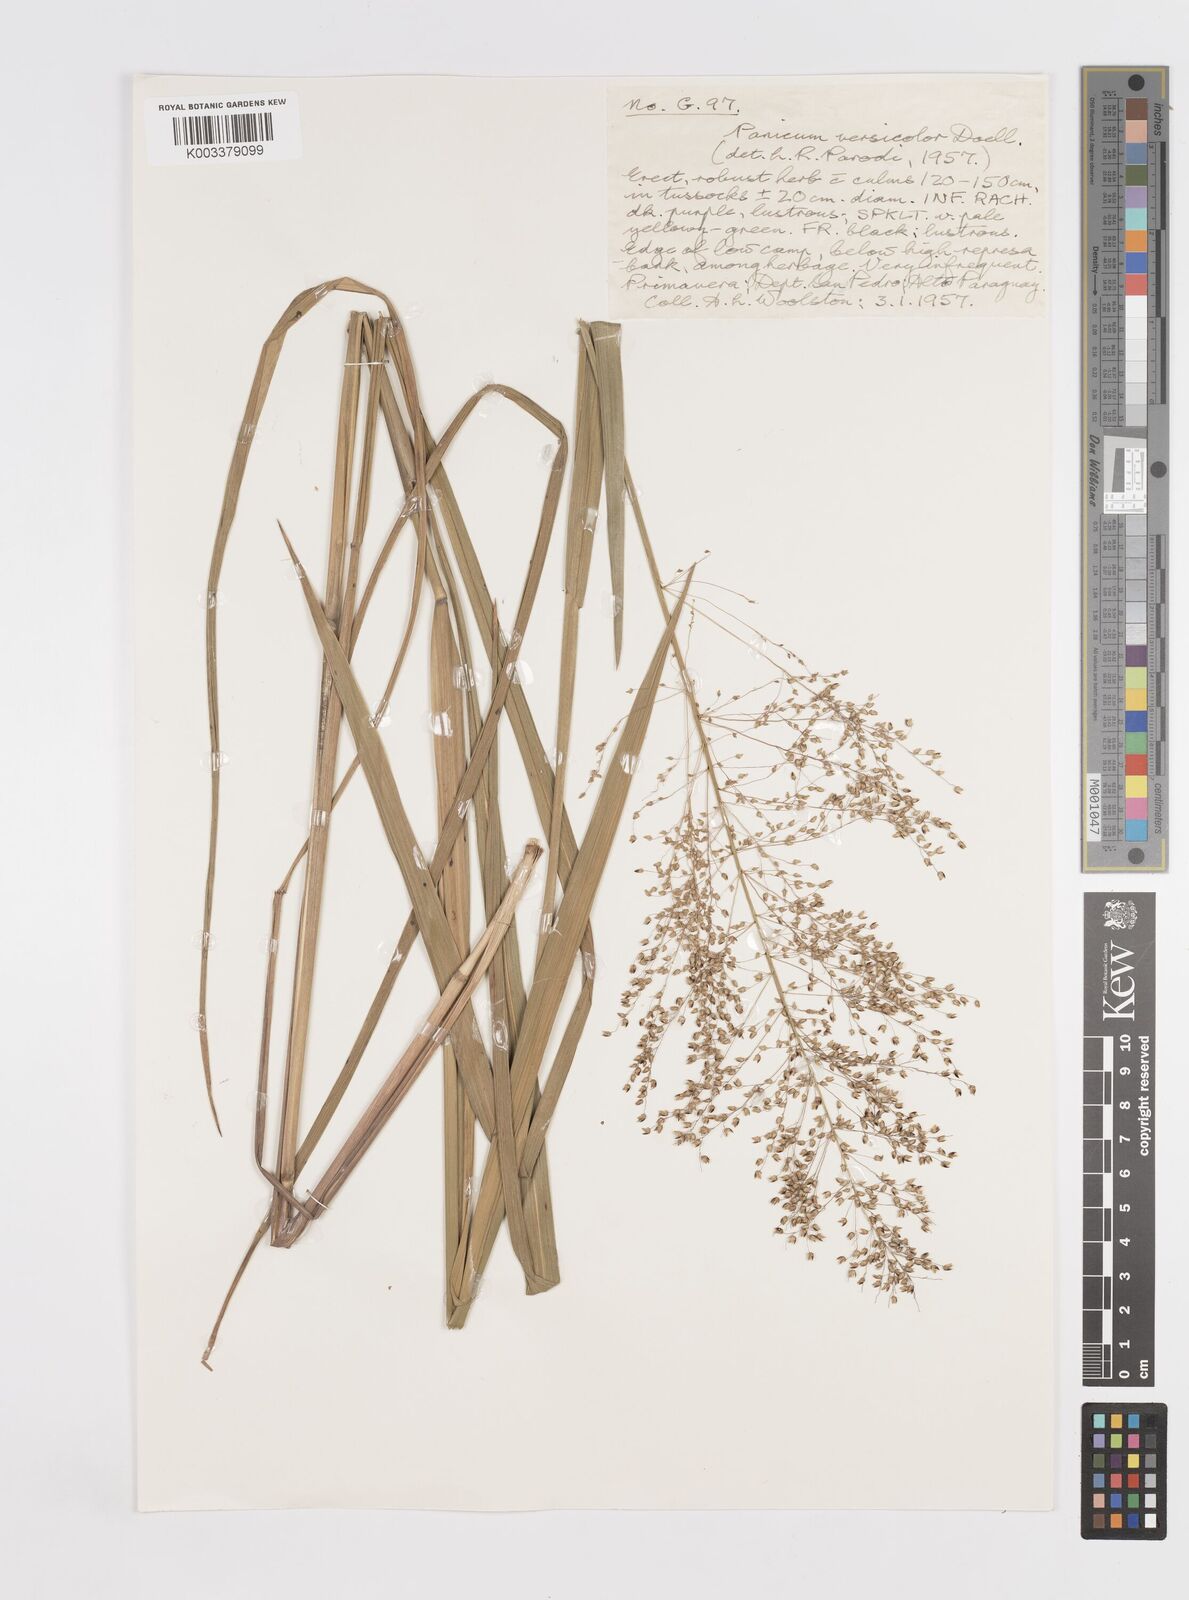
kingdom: Plantae
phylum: Tracheophyta
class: Liliopsida
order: Poales
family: Poaceae
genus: Otachyrium
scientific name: Otachyrium versicolor
